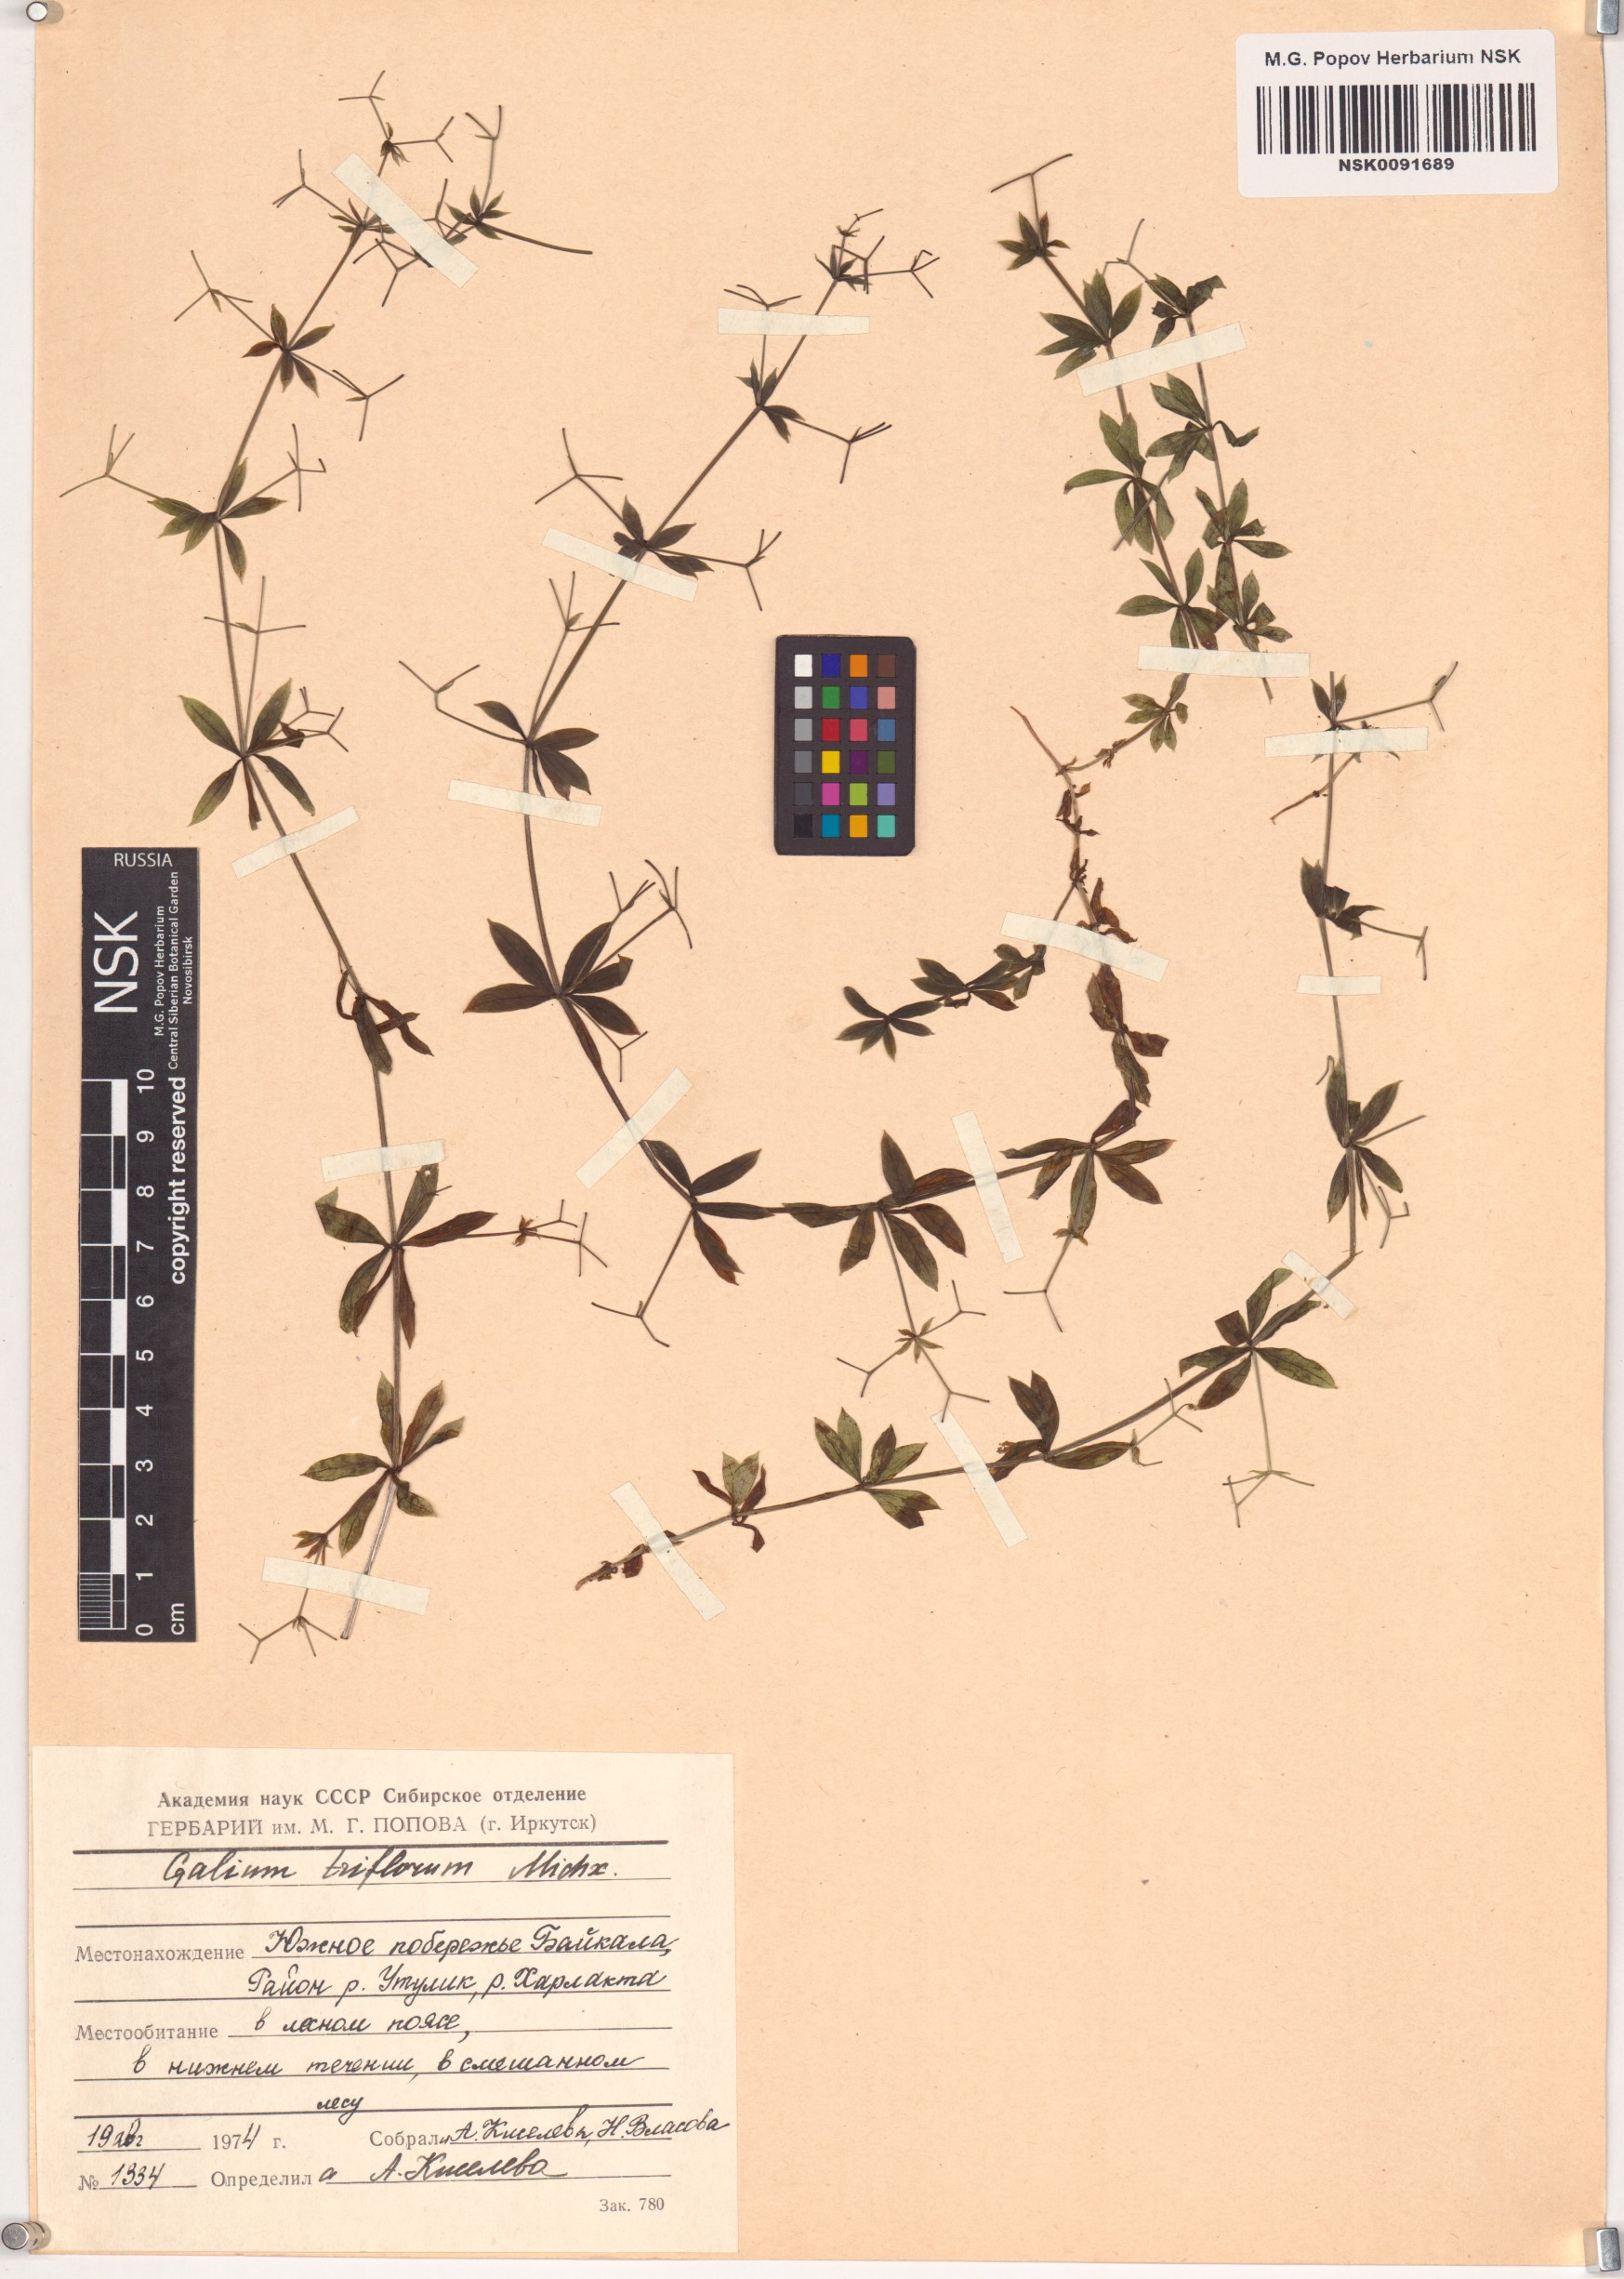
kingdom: Plantae
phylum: Tracheophyta
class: Magnoliopsida
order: Gentianales
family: Rubiaceae
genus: Galium
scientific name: Galium triflorum
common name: Fragrant bedstraw
